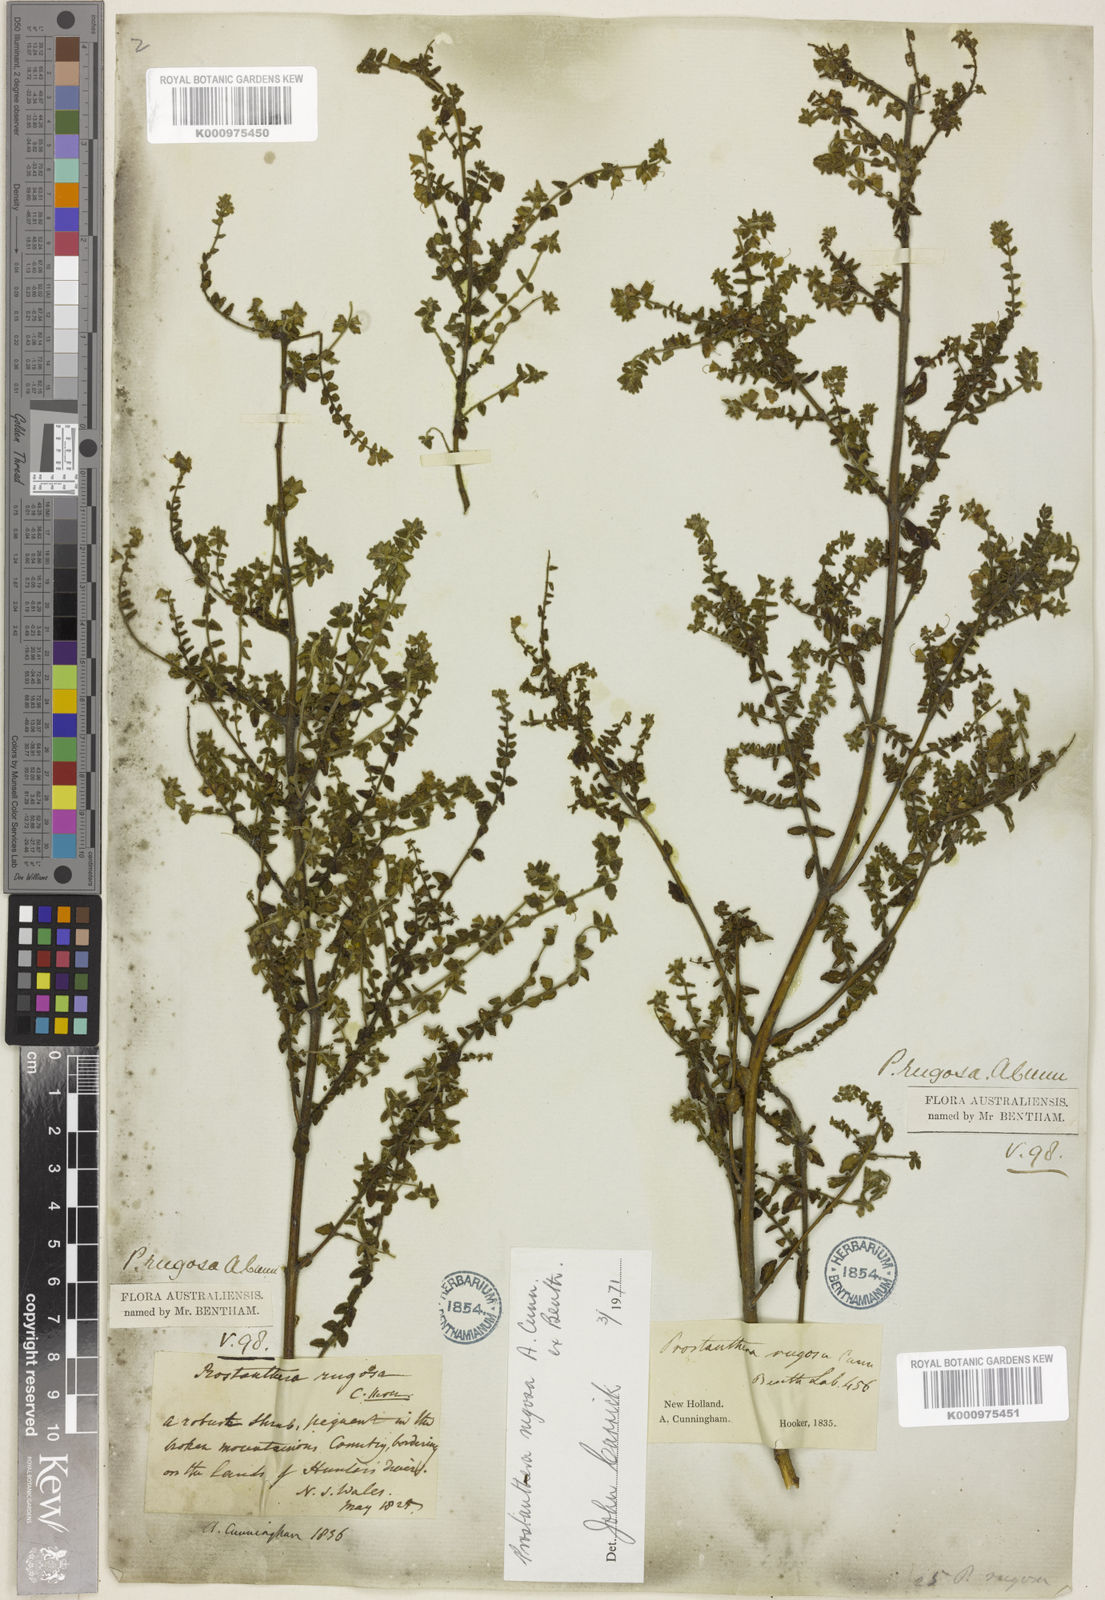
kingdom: Plantae
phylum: Tracheophyta
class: Magnoliopsida
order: Lamiales
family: Lamiaceae
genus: Prostanthera
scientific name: Prostanthera rugosa
